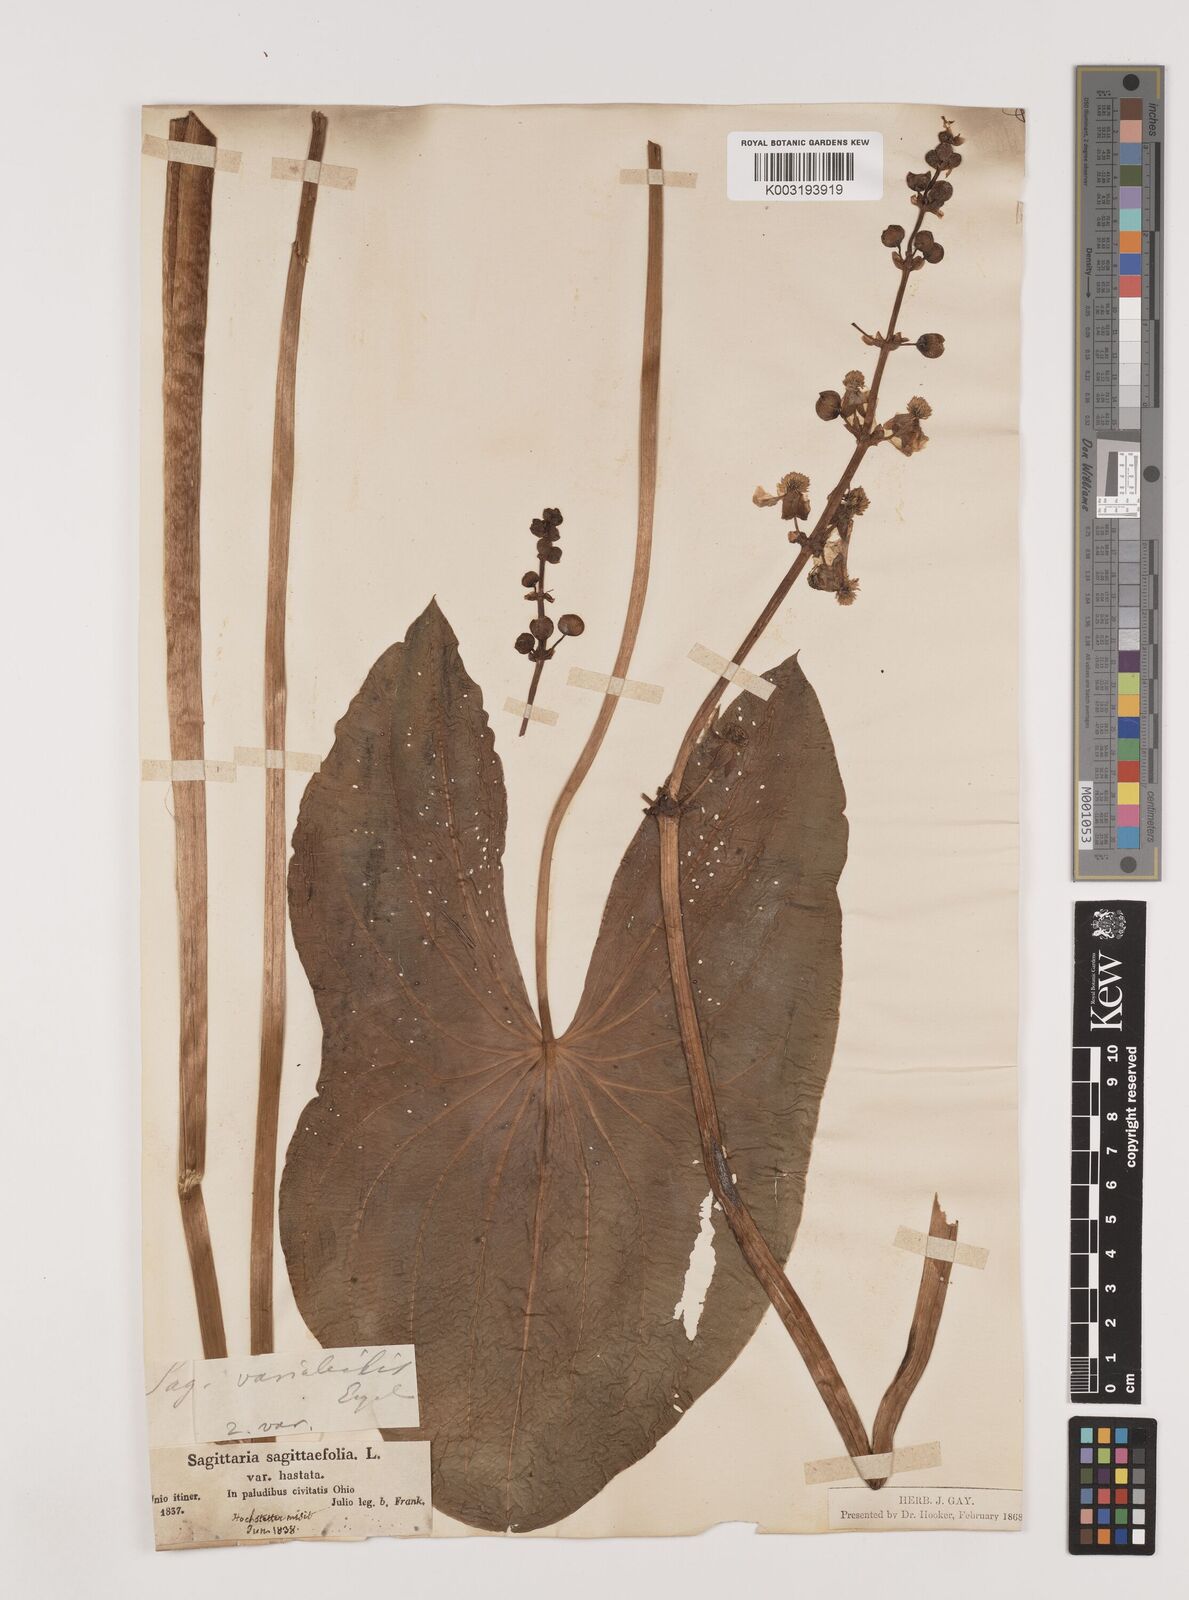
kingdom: Plantae
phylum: Tracheophyta
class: Liliopsida
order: Alismatales
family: Alismataceae
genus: Sagittaria
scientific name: Sagittaria latifolia
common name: Duck-potato
